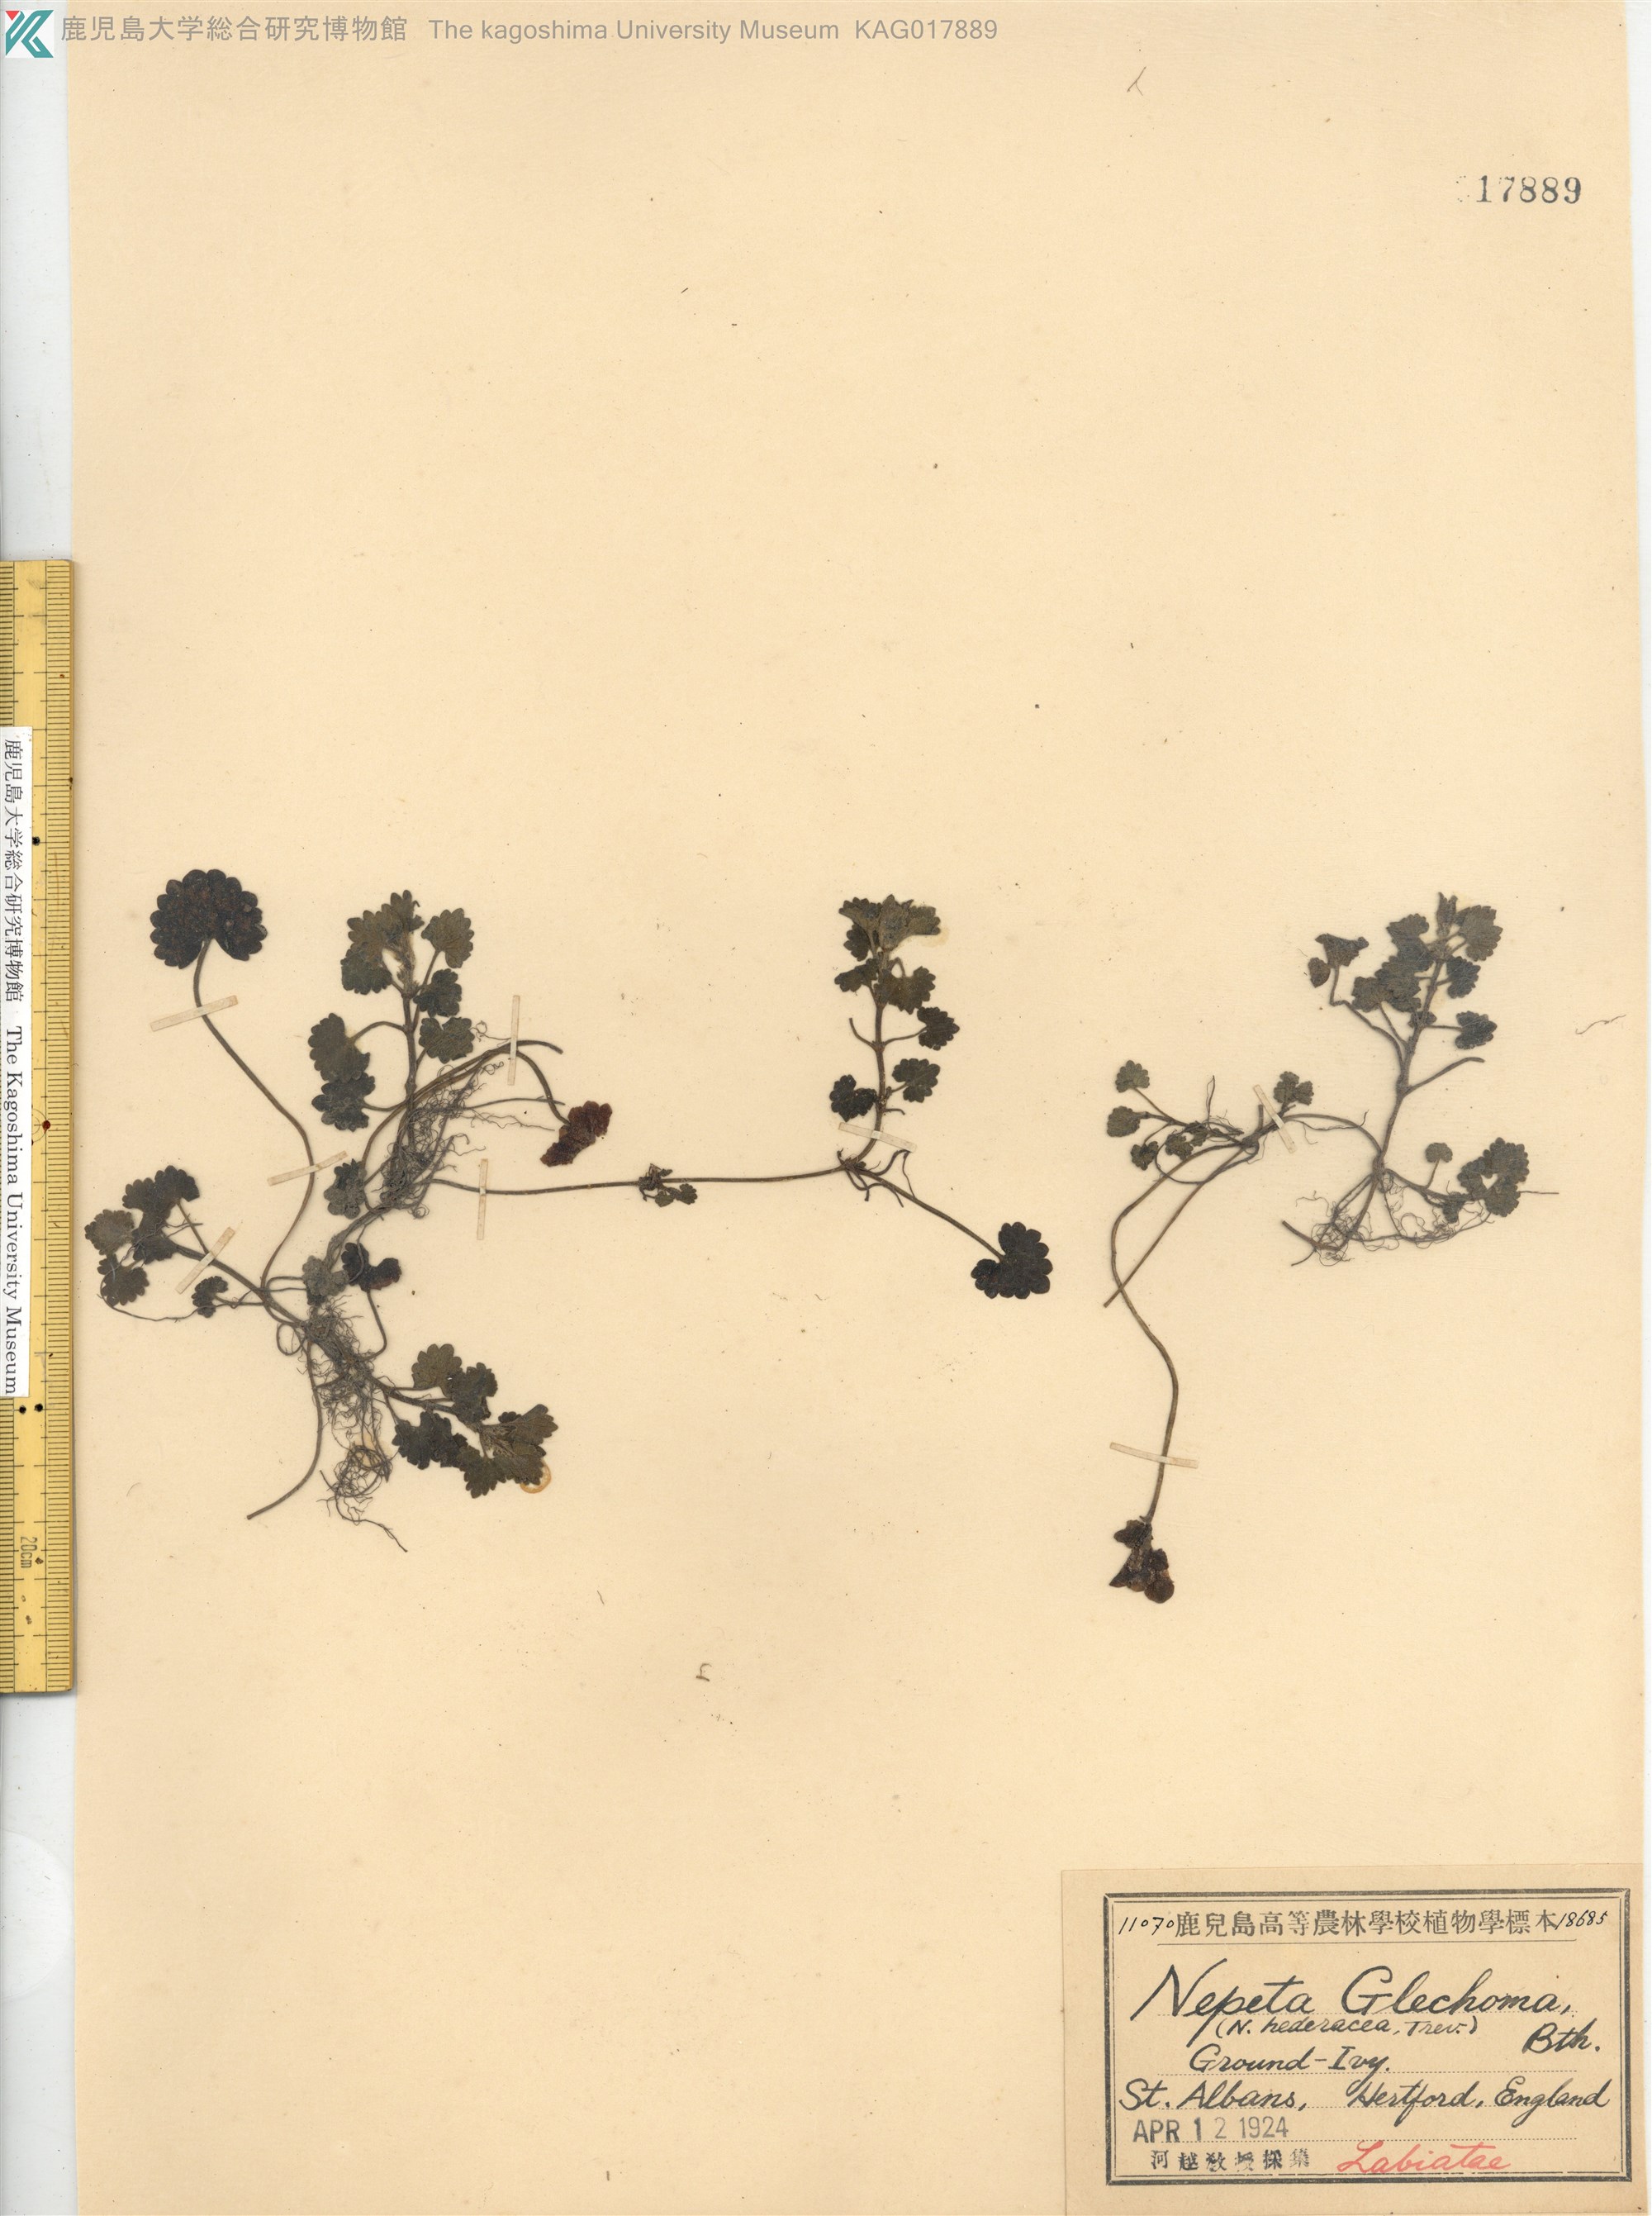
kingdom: Plantae
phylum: Tracheophyta
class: Magnoliopsida
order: Lamiales
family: Lamiaceae
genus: Glechoma
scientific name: Glechoma hederacea
